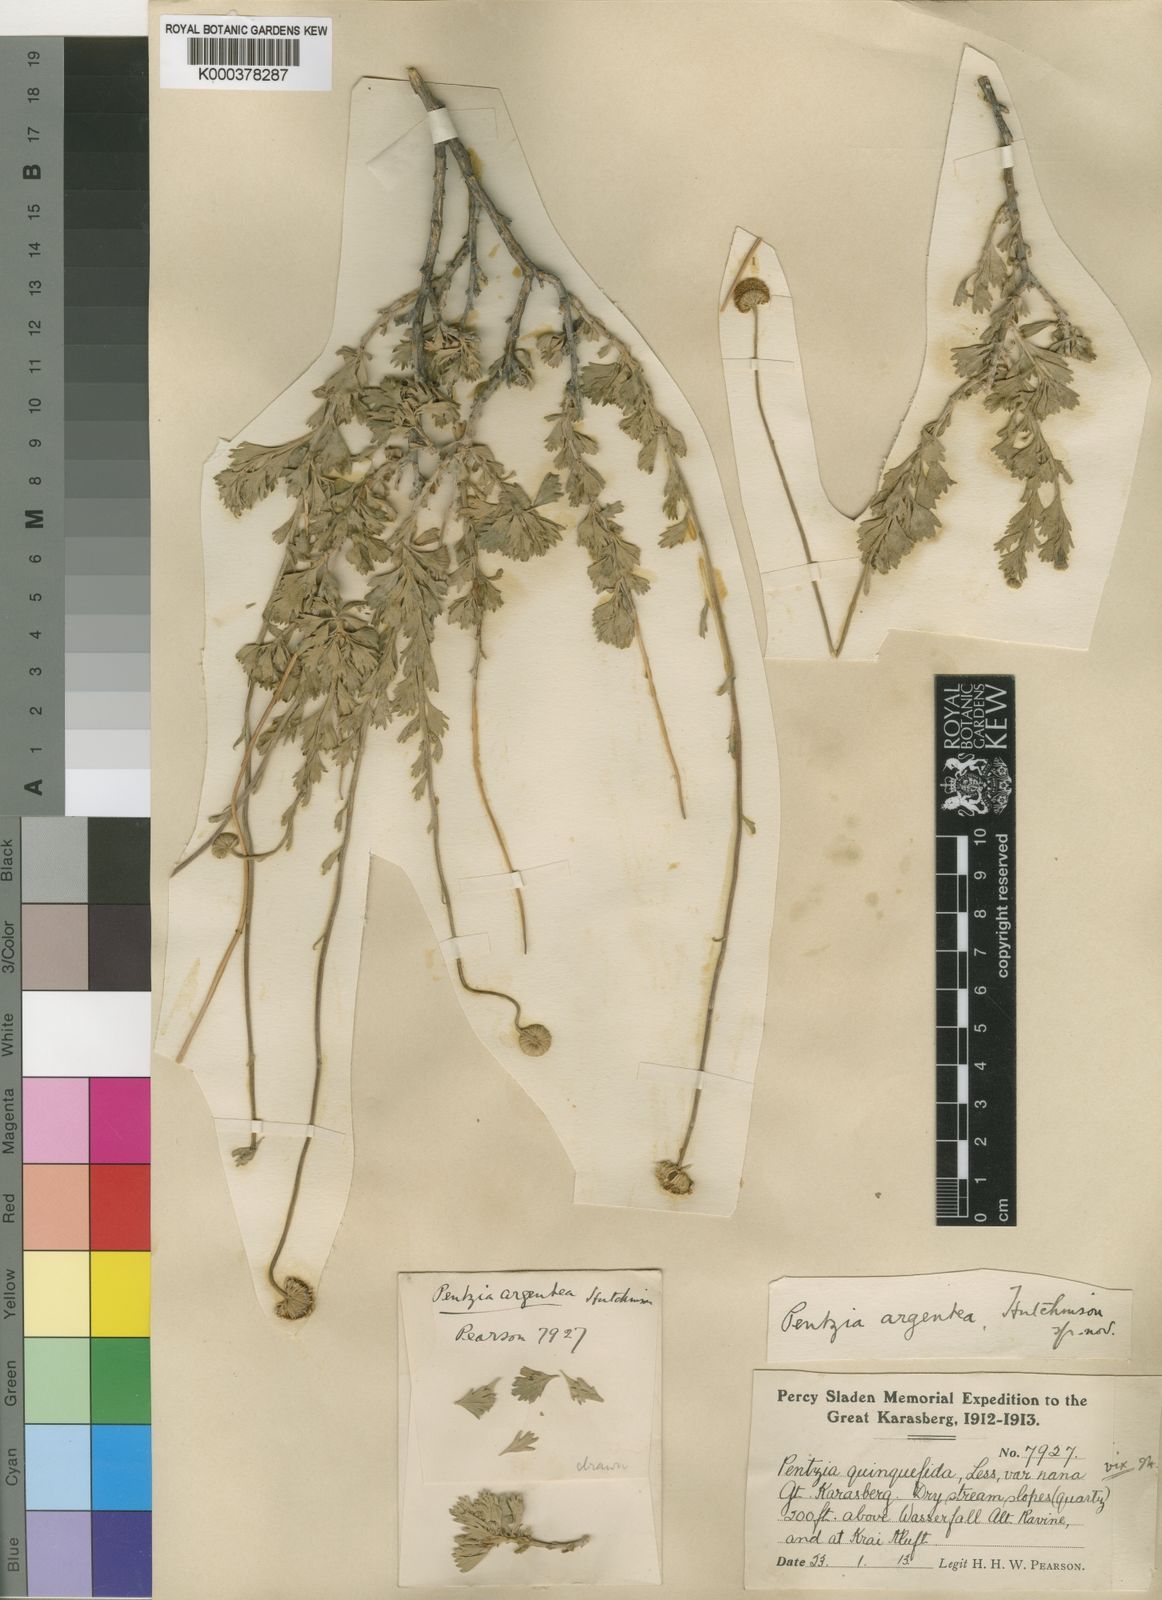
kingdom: Plantae
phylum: Tracheophyta
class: Magnoliopsida
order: Asterales
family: Asteraceae
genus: Pentzia
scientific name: Pentzia argentea
